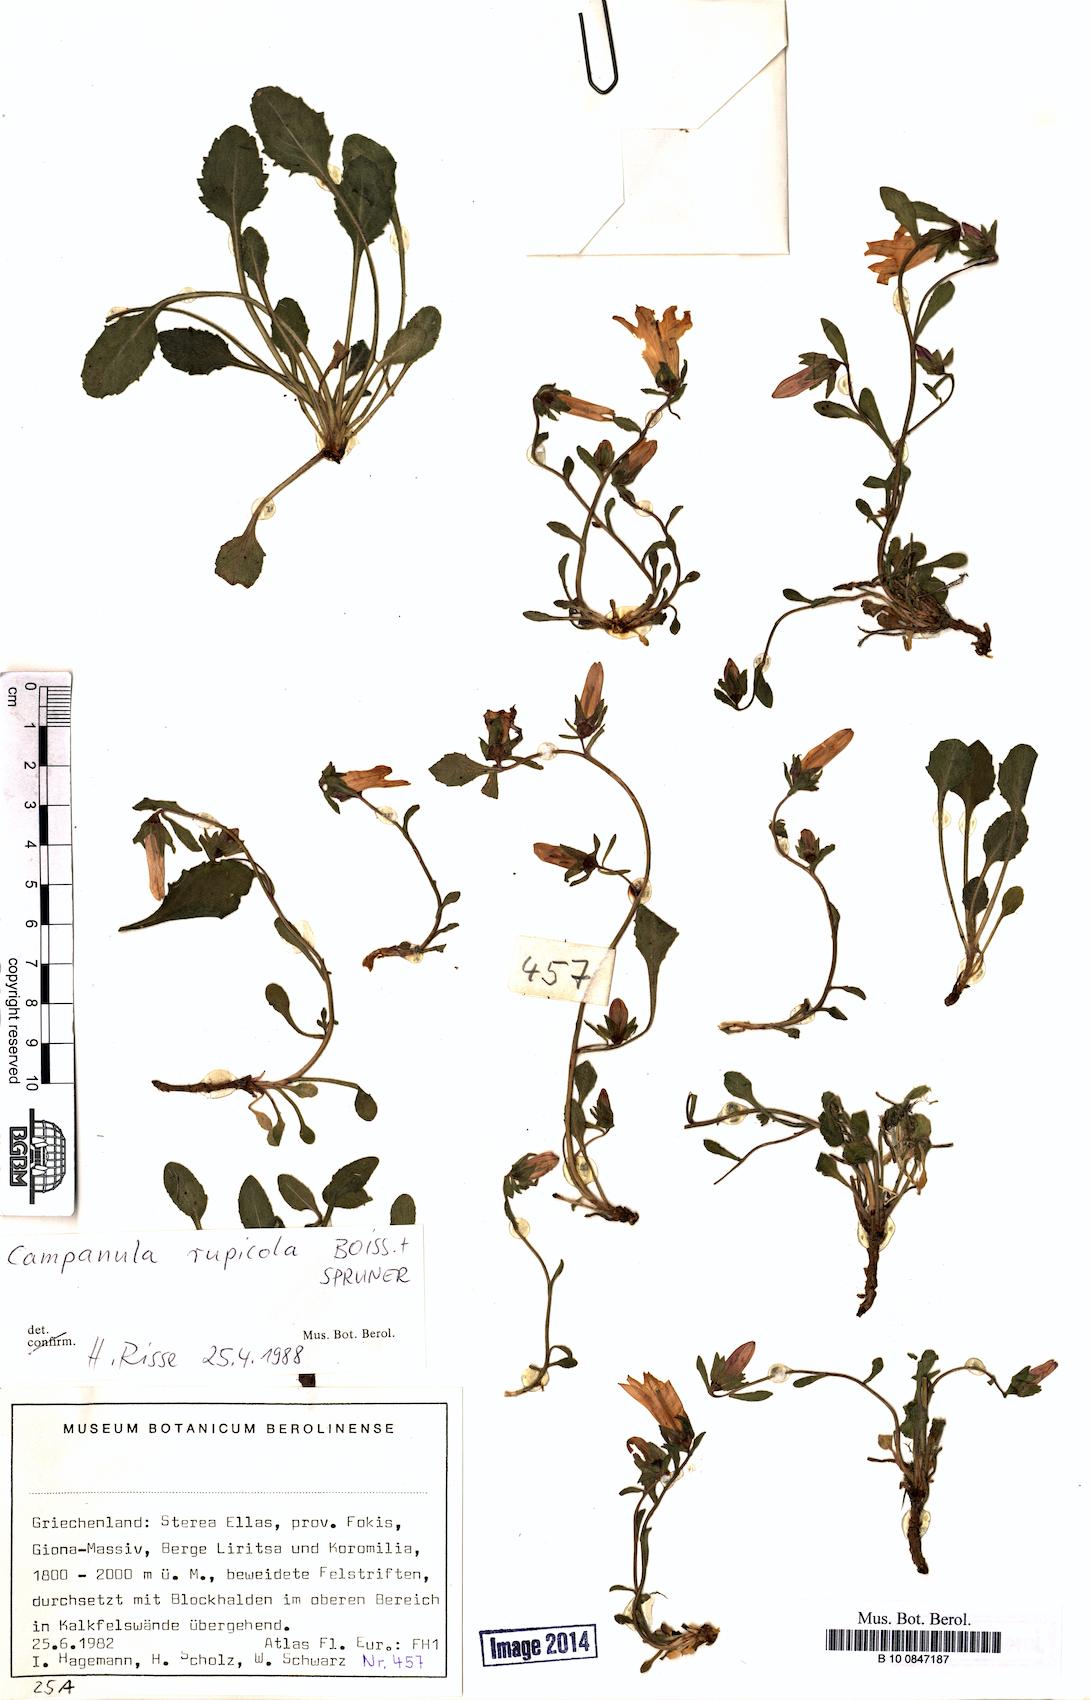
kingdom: Plantae
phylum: Tracheophyta
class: Magnoliopsida
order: Asterales
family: Campanulaceae
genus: Campanula
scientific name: Campanula rupicola
